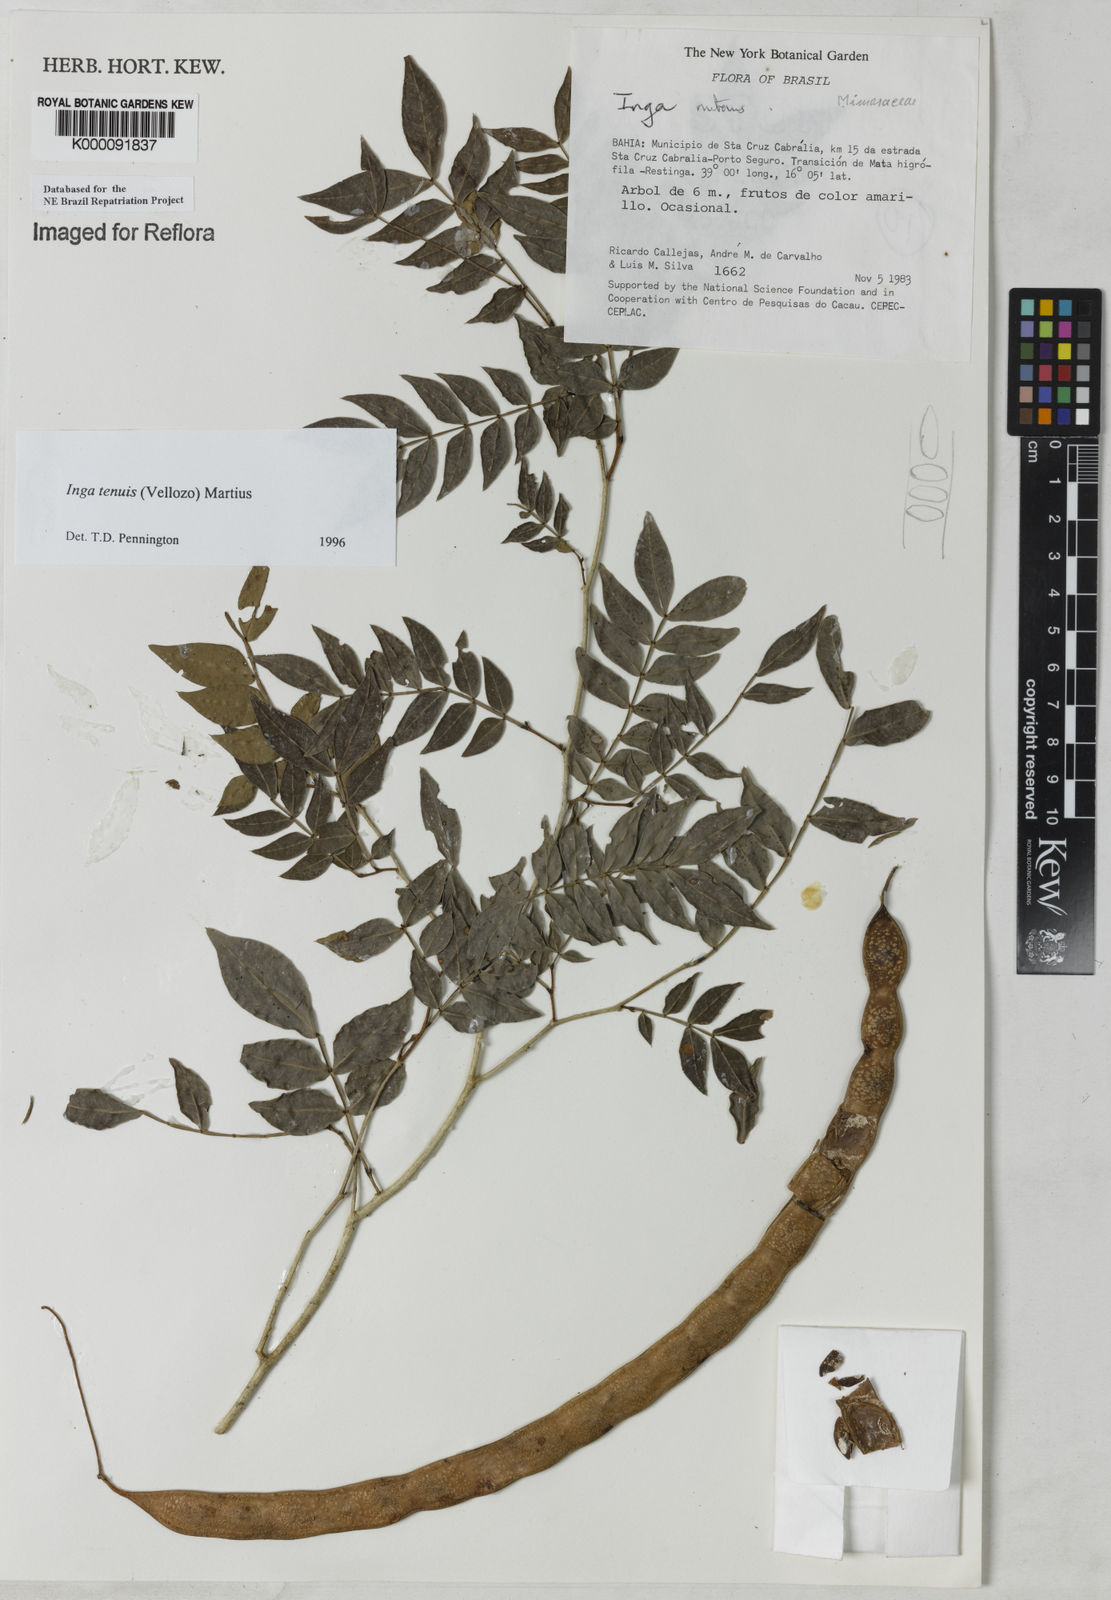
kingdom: Plantae
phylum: Tracheophyta
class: Magnoliopsida
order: Fabales
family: Fabaceae
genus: Inga
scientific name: Inga tenuis
